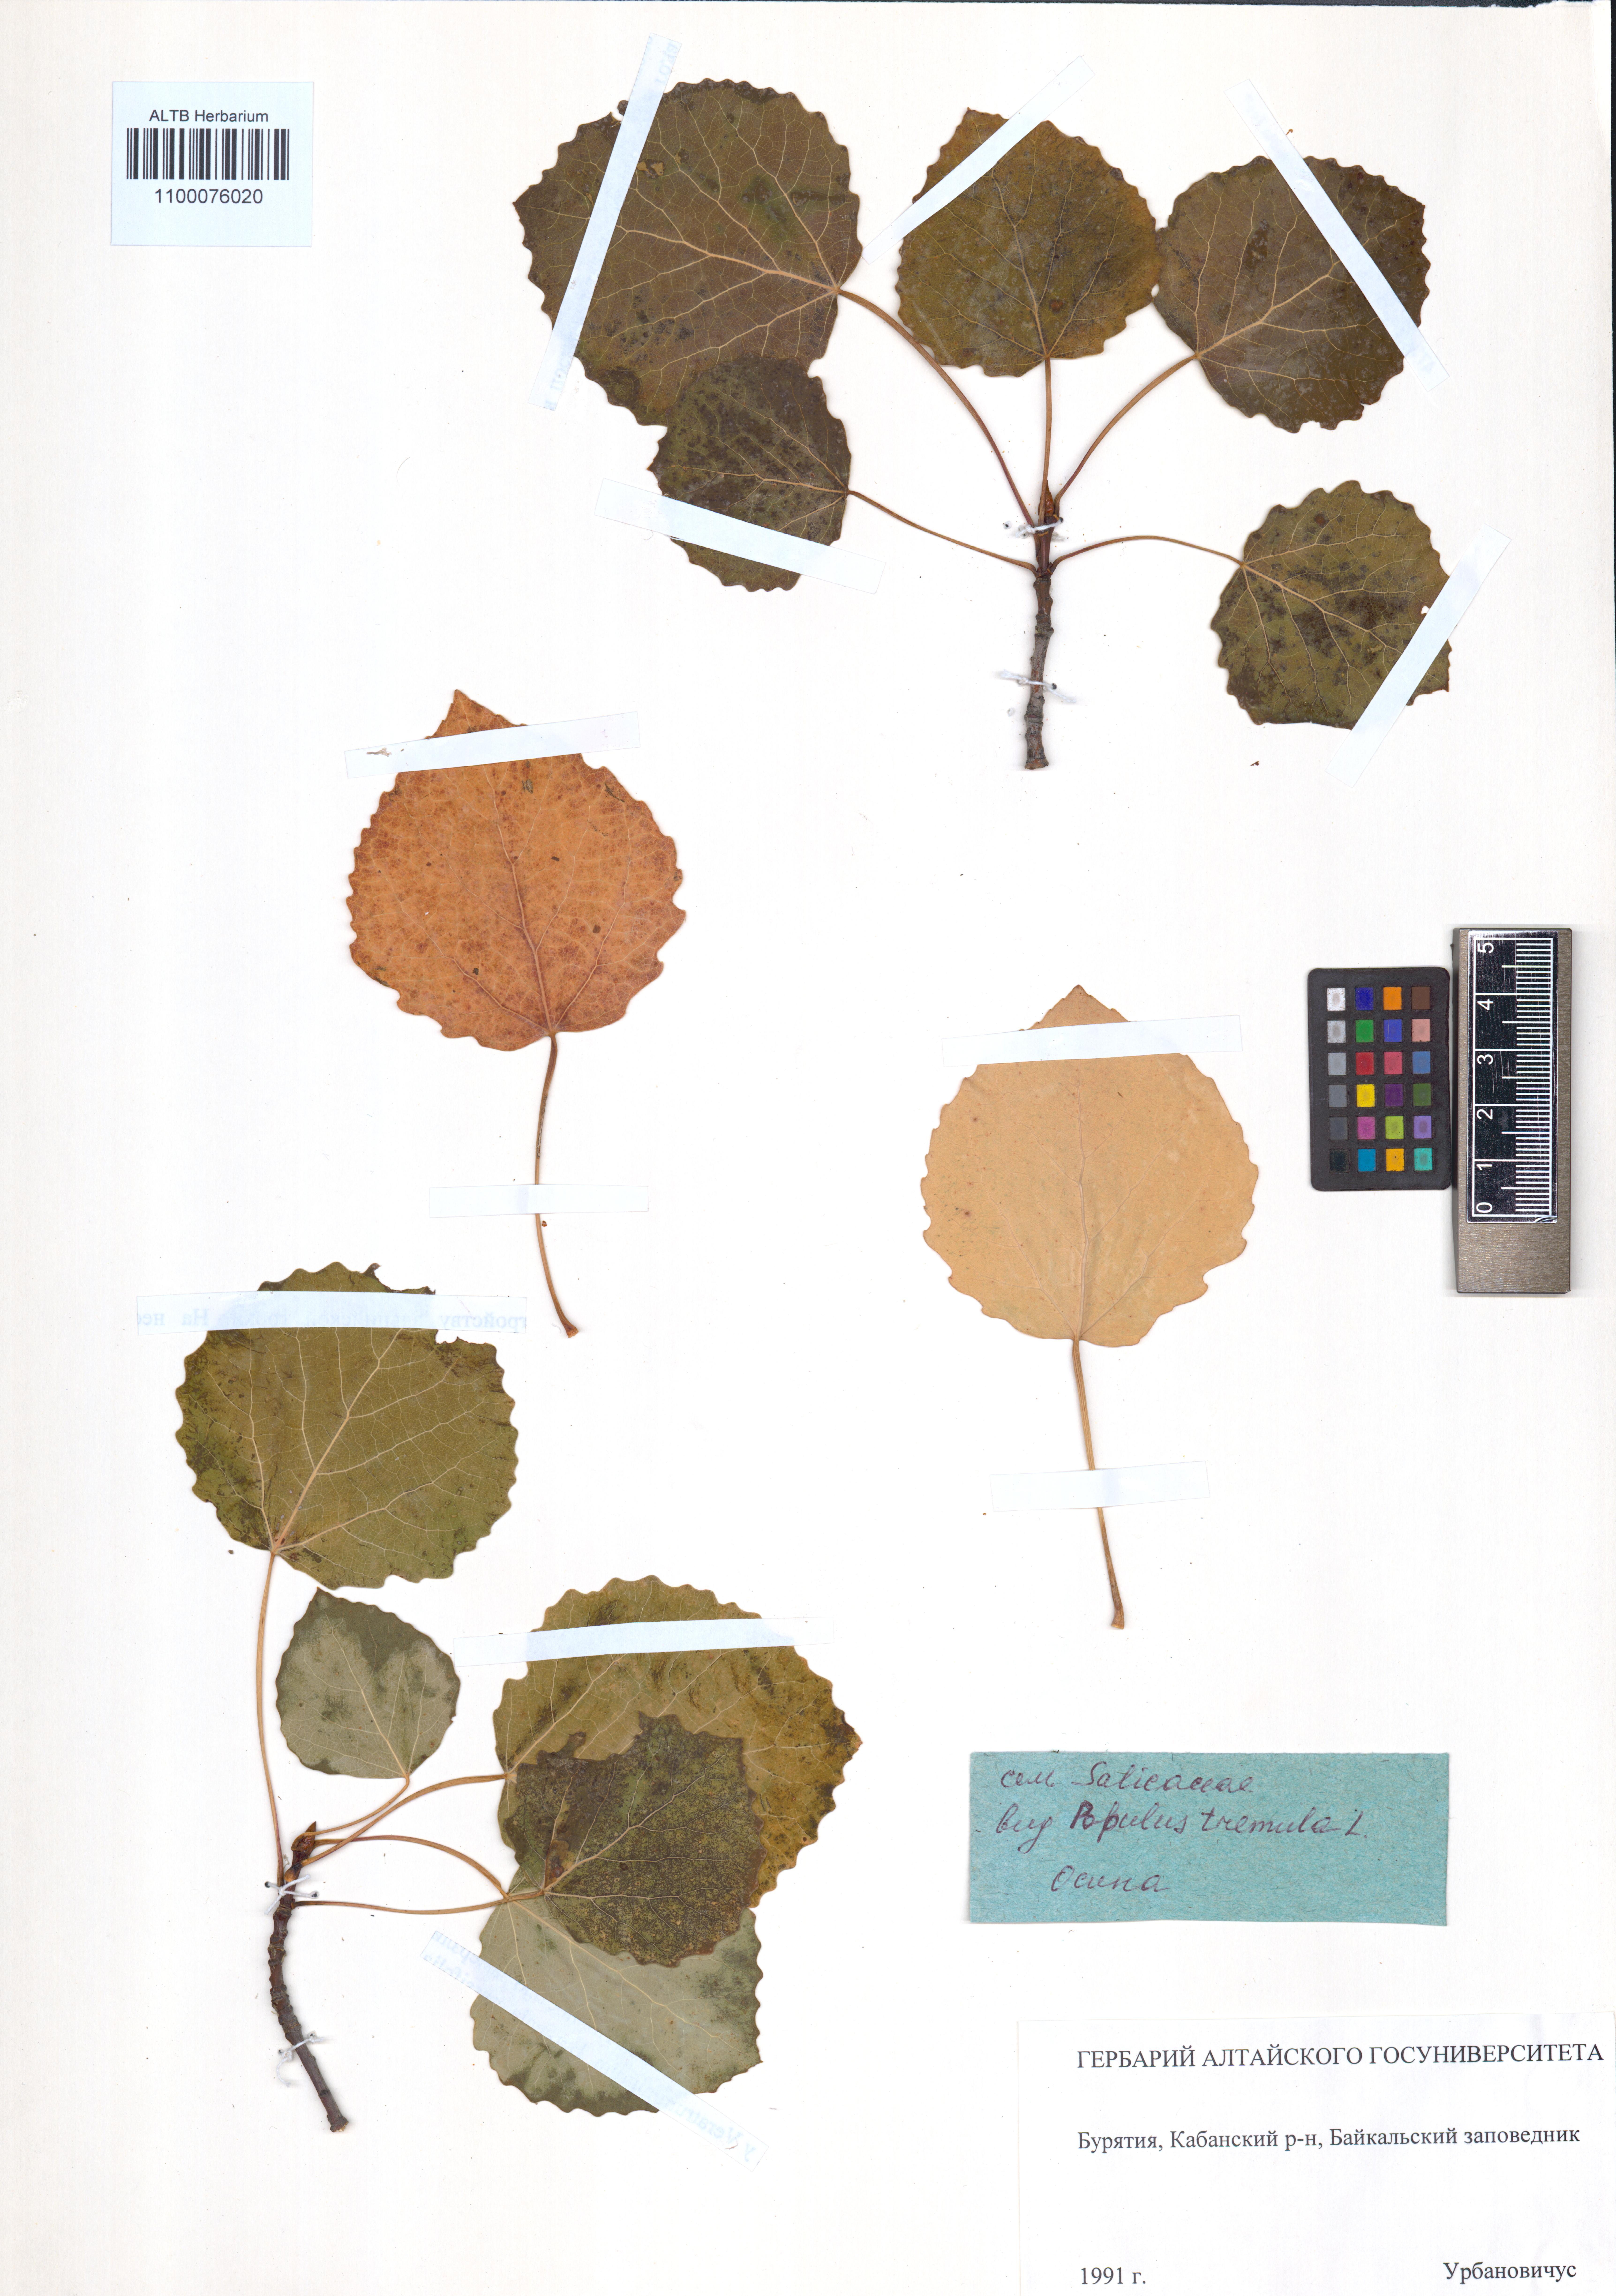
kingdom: Plantae
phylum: Tracheophyta
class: Magnoliopsida
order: Malpighiales
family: Salicaceae
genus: Populus
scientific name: Populus tremula
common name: European aspen
